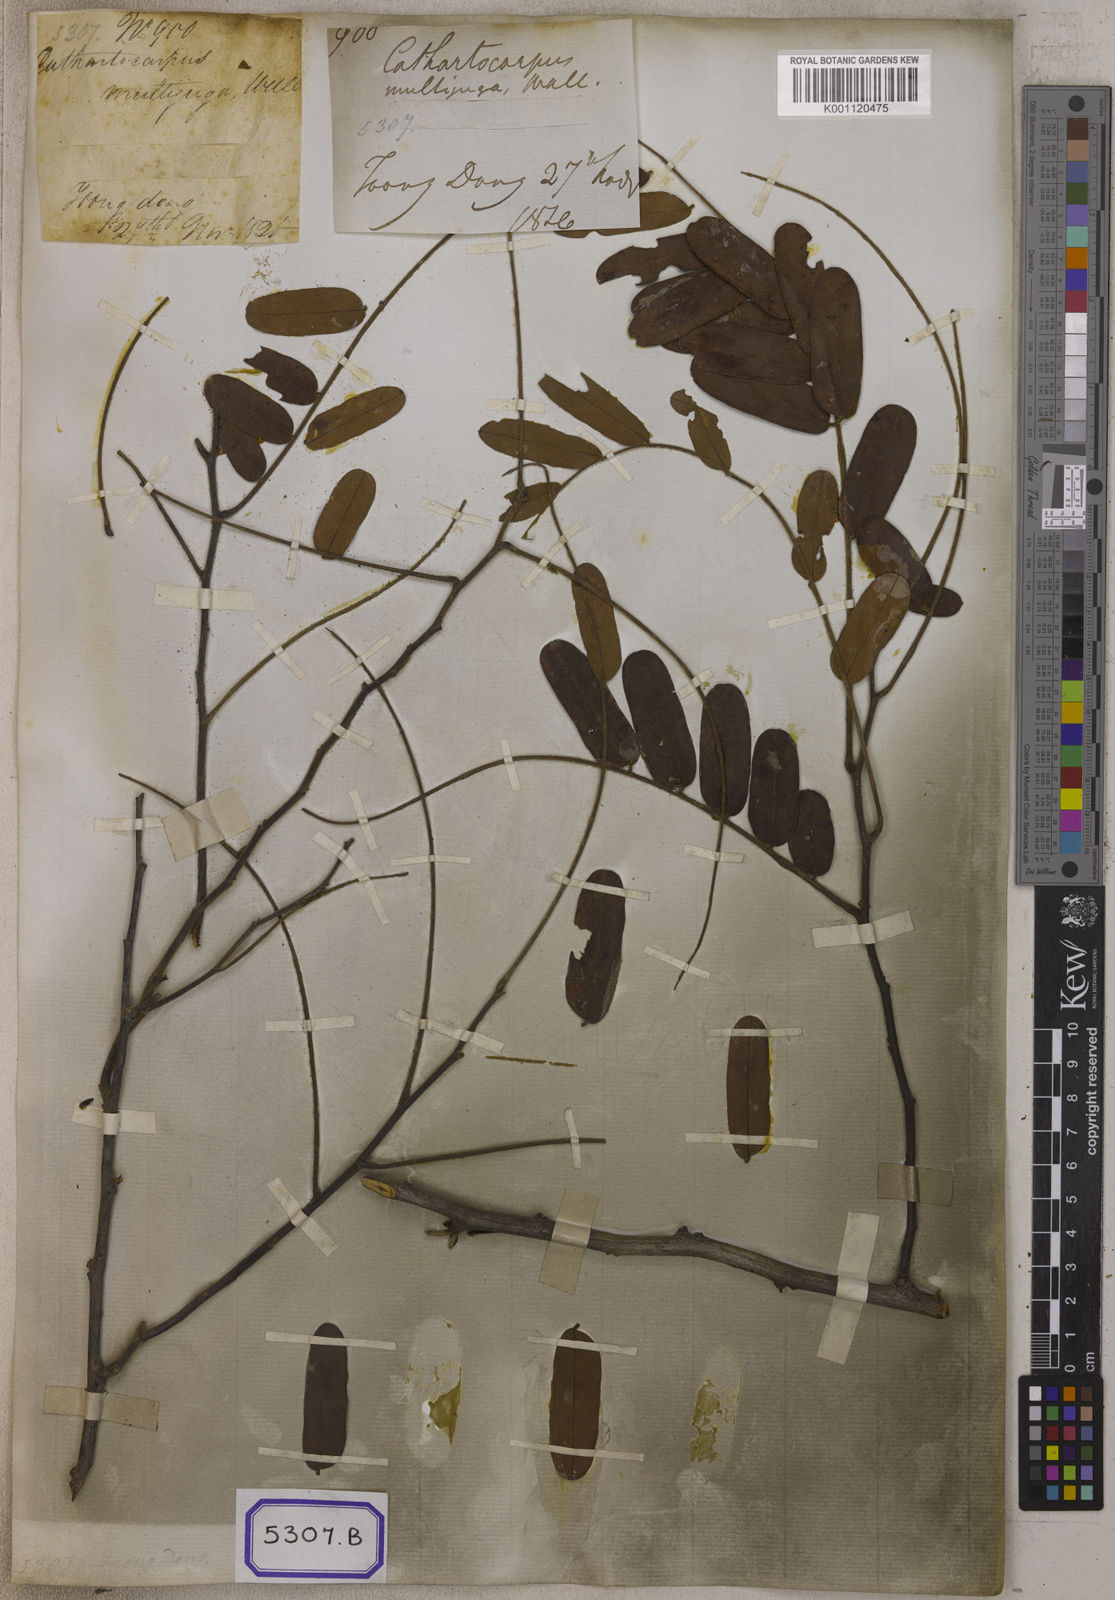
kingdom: Plantae
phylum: Tracheophyta
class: Magnoliopsida
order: Fabales
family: Fabaceae
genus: Cassia
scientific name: Cassia
